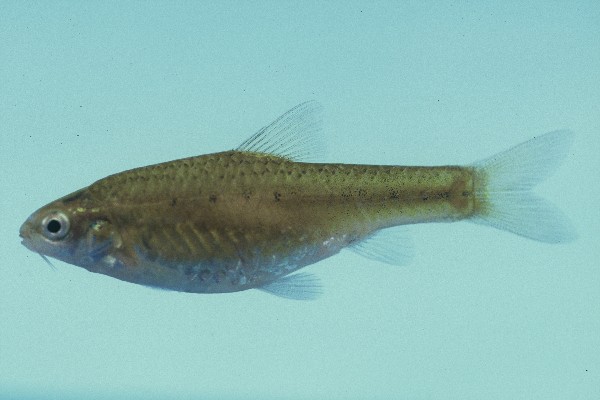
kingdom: Animalia
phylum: Chordata
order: Cypriniformes
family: Cyprinidae
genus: Enteromius
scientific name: Enteromius pallidus
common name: Goldie barb
